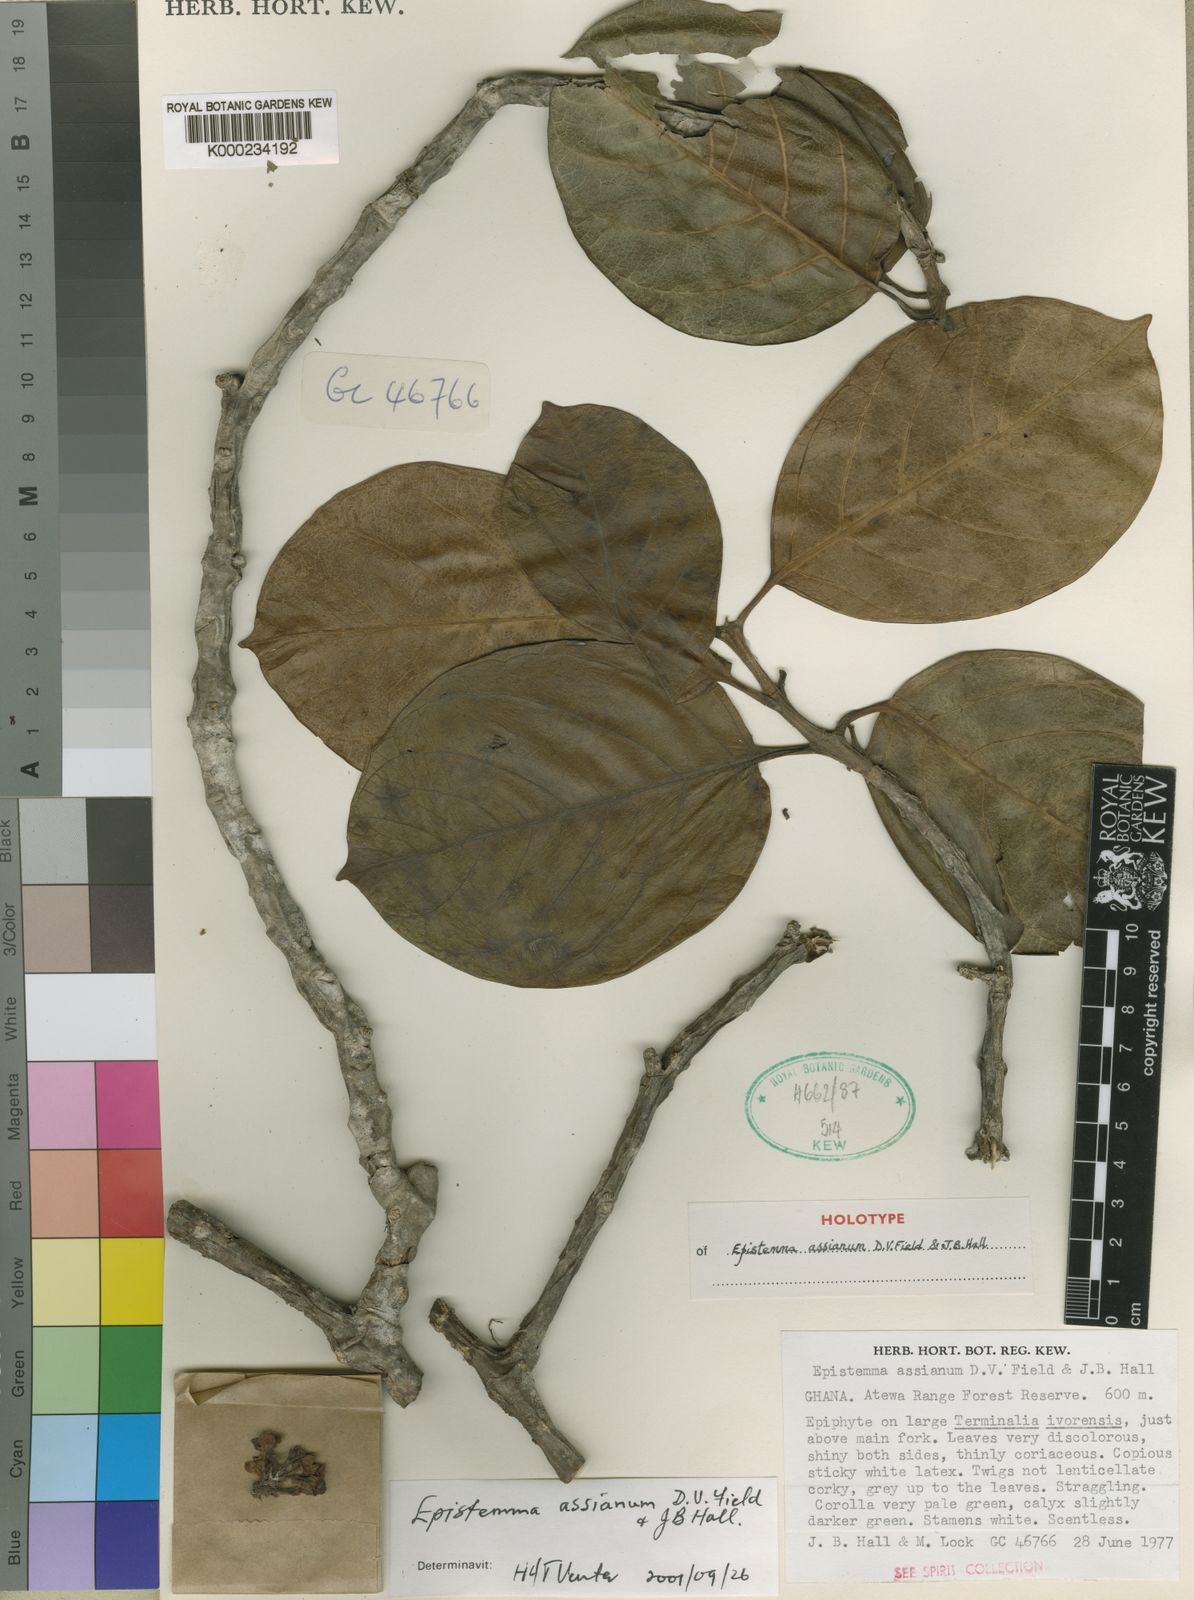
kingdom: Plantae
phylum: Tracheophyta
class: Magnoliopsida
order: Gentianales
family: Apocynaceae
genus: Epistemma
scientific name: Epistemma assianum
